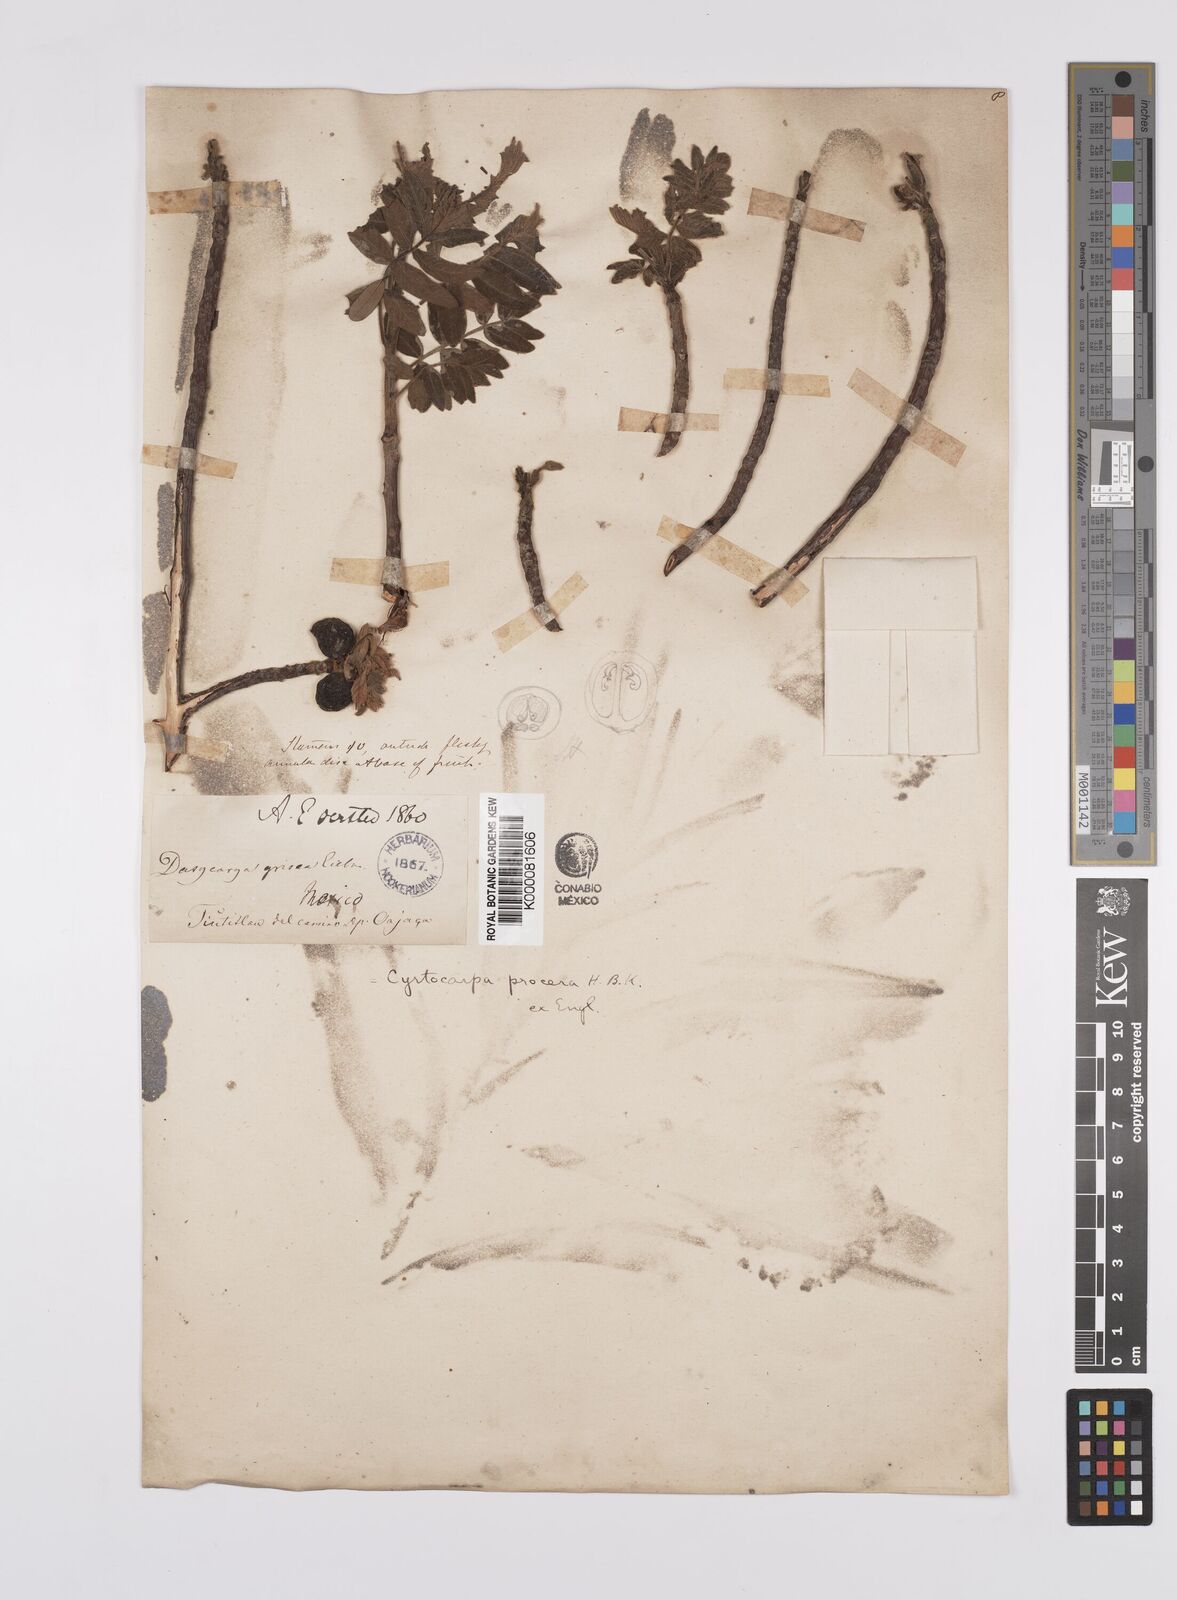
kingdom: Plantae
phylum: Tracheophyta
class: Magnoliopsida
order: Sapindales
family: Anacardiaceae
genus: Cyrtocarpa
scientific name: Cyrtocarpa procera
